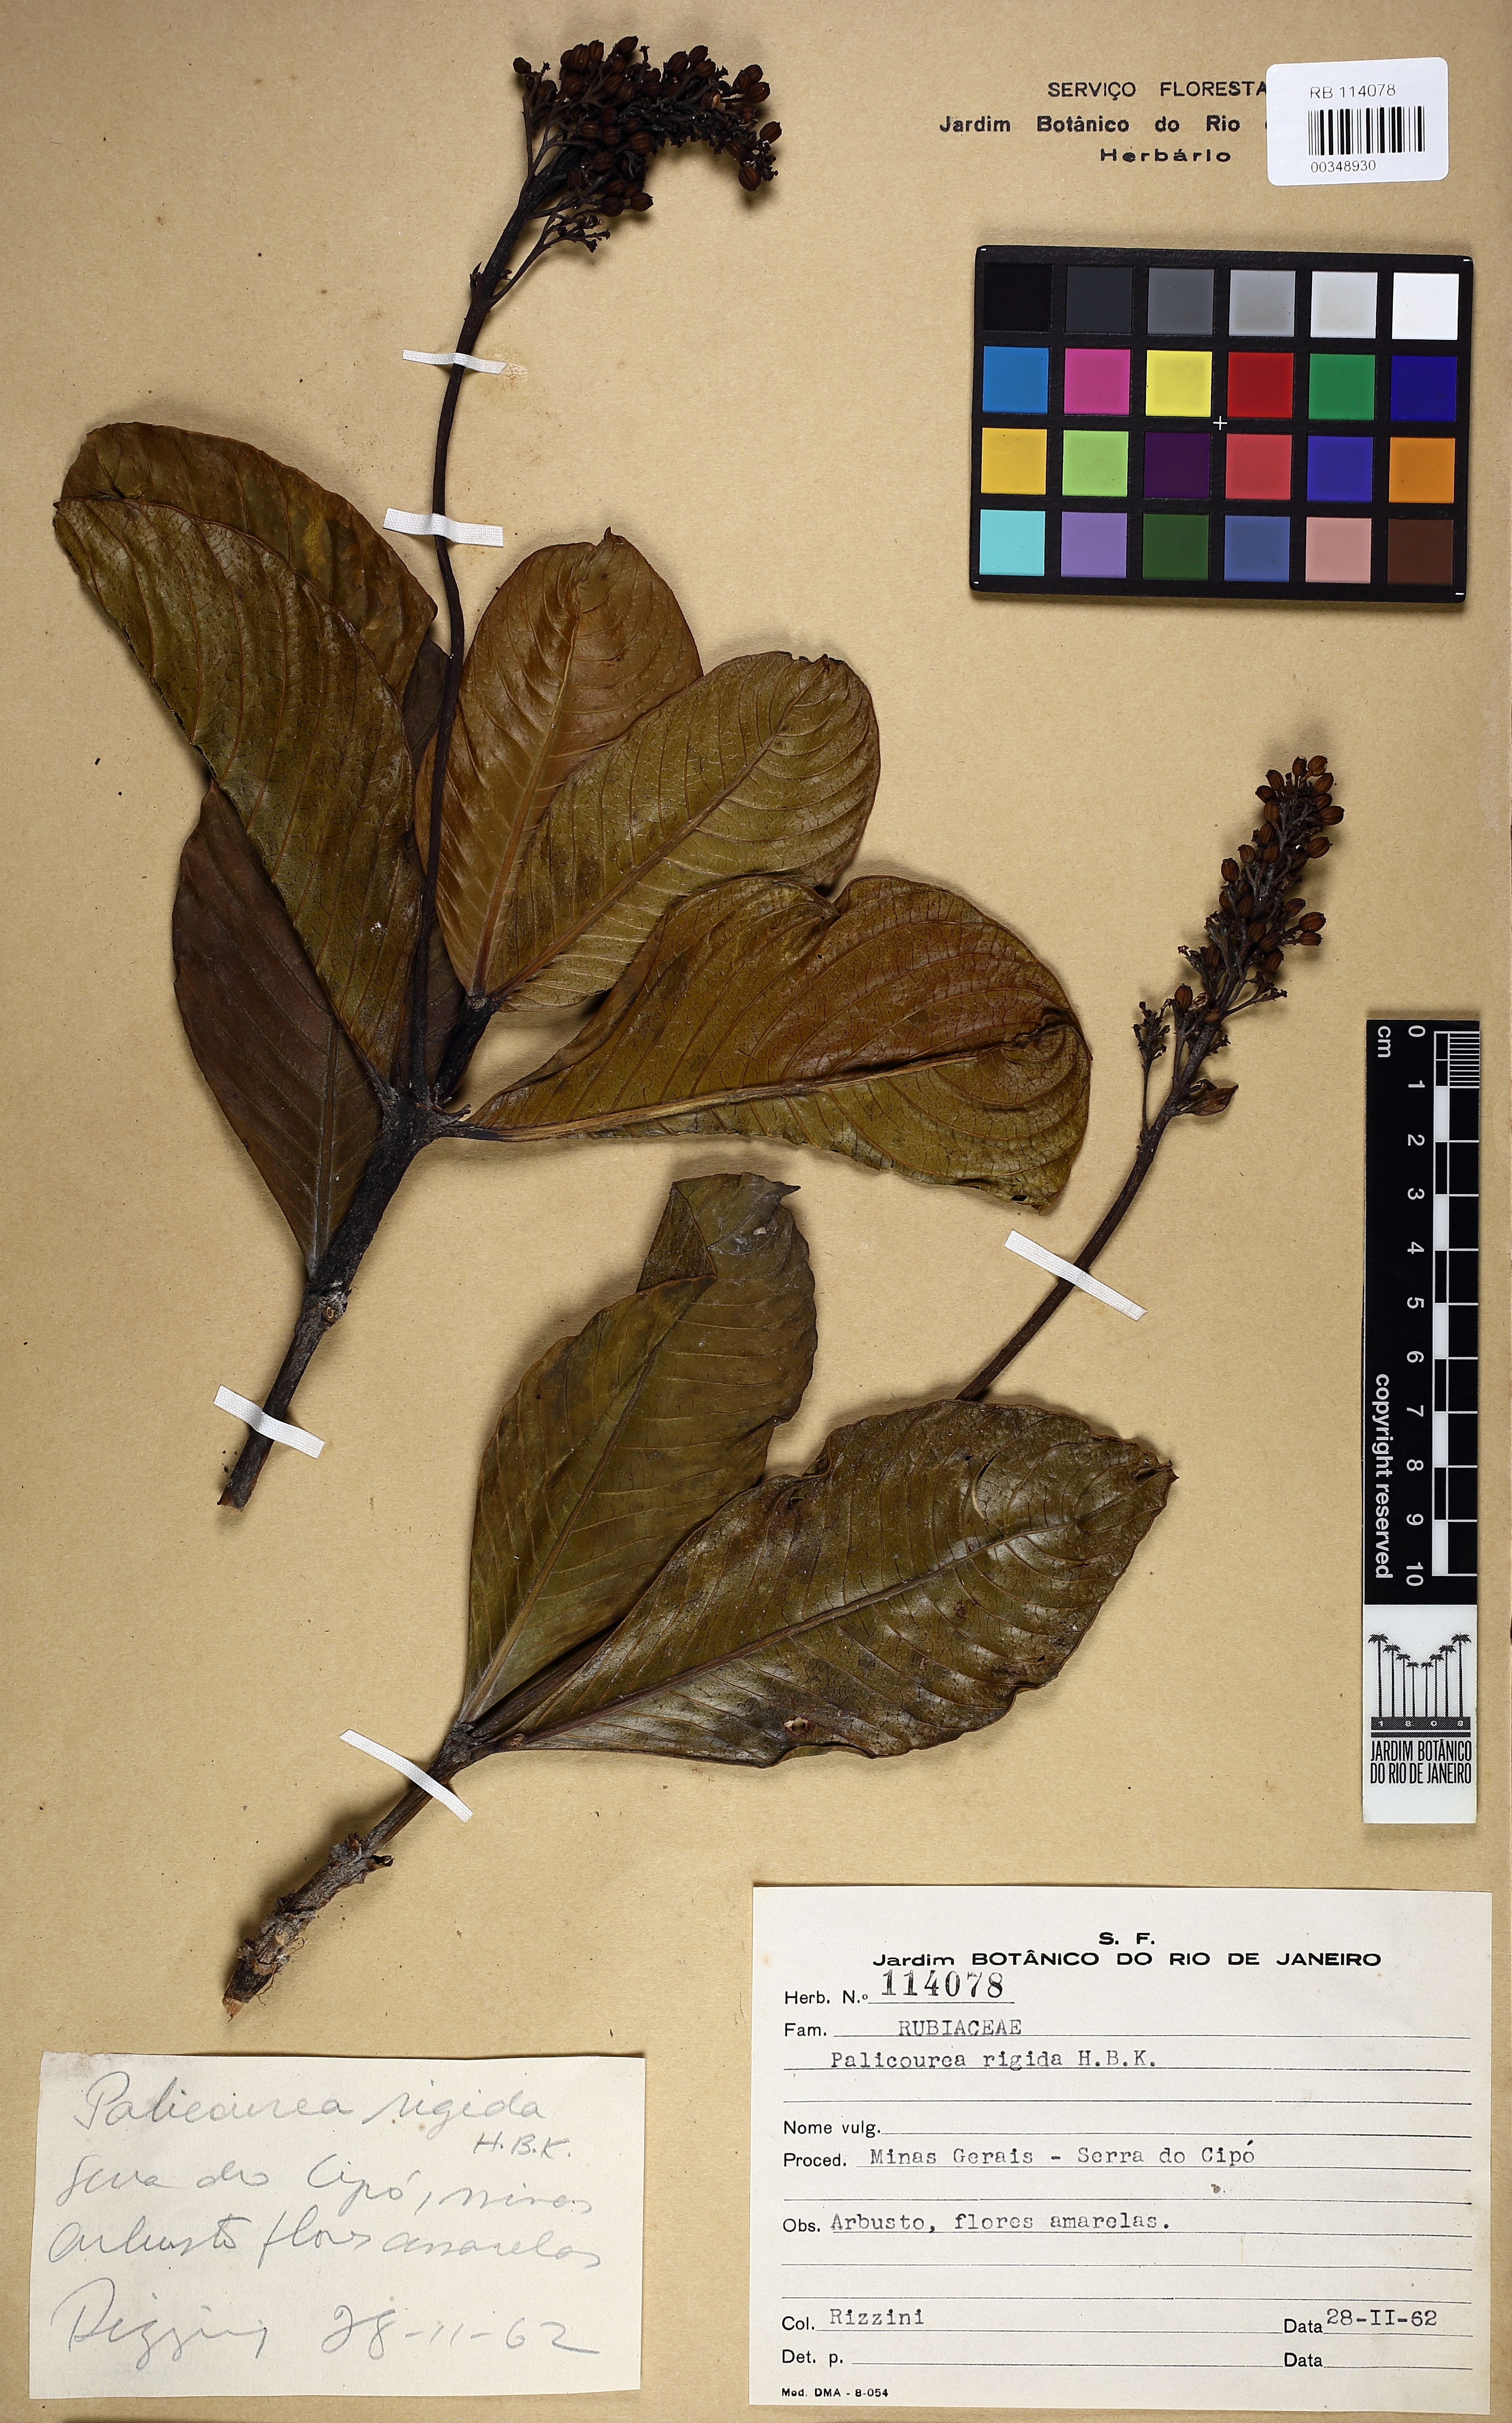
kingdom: Plantae
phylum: Tracheophyta
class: Magnoliopsida
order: Gentianales
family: Rubiaceae
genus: Palicourea
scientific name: Palicourea rigida
